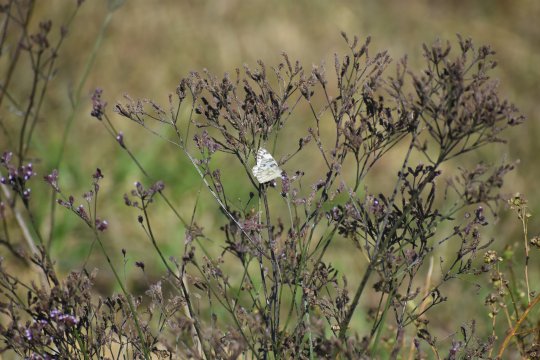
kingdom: Animalia
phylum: Arthropoda
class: Insecta
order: Lepidoptera
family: Pieridae
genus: Pontia
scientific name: Pontia protodice
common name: Checkered White
